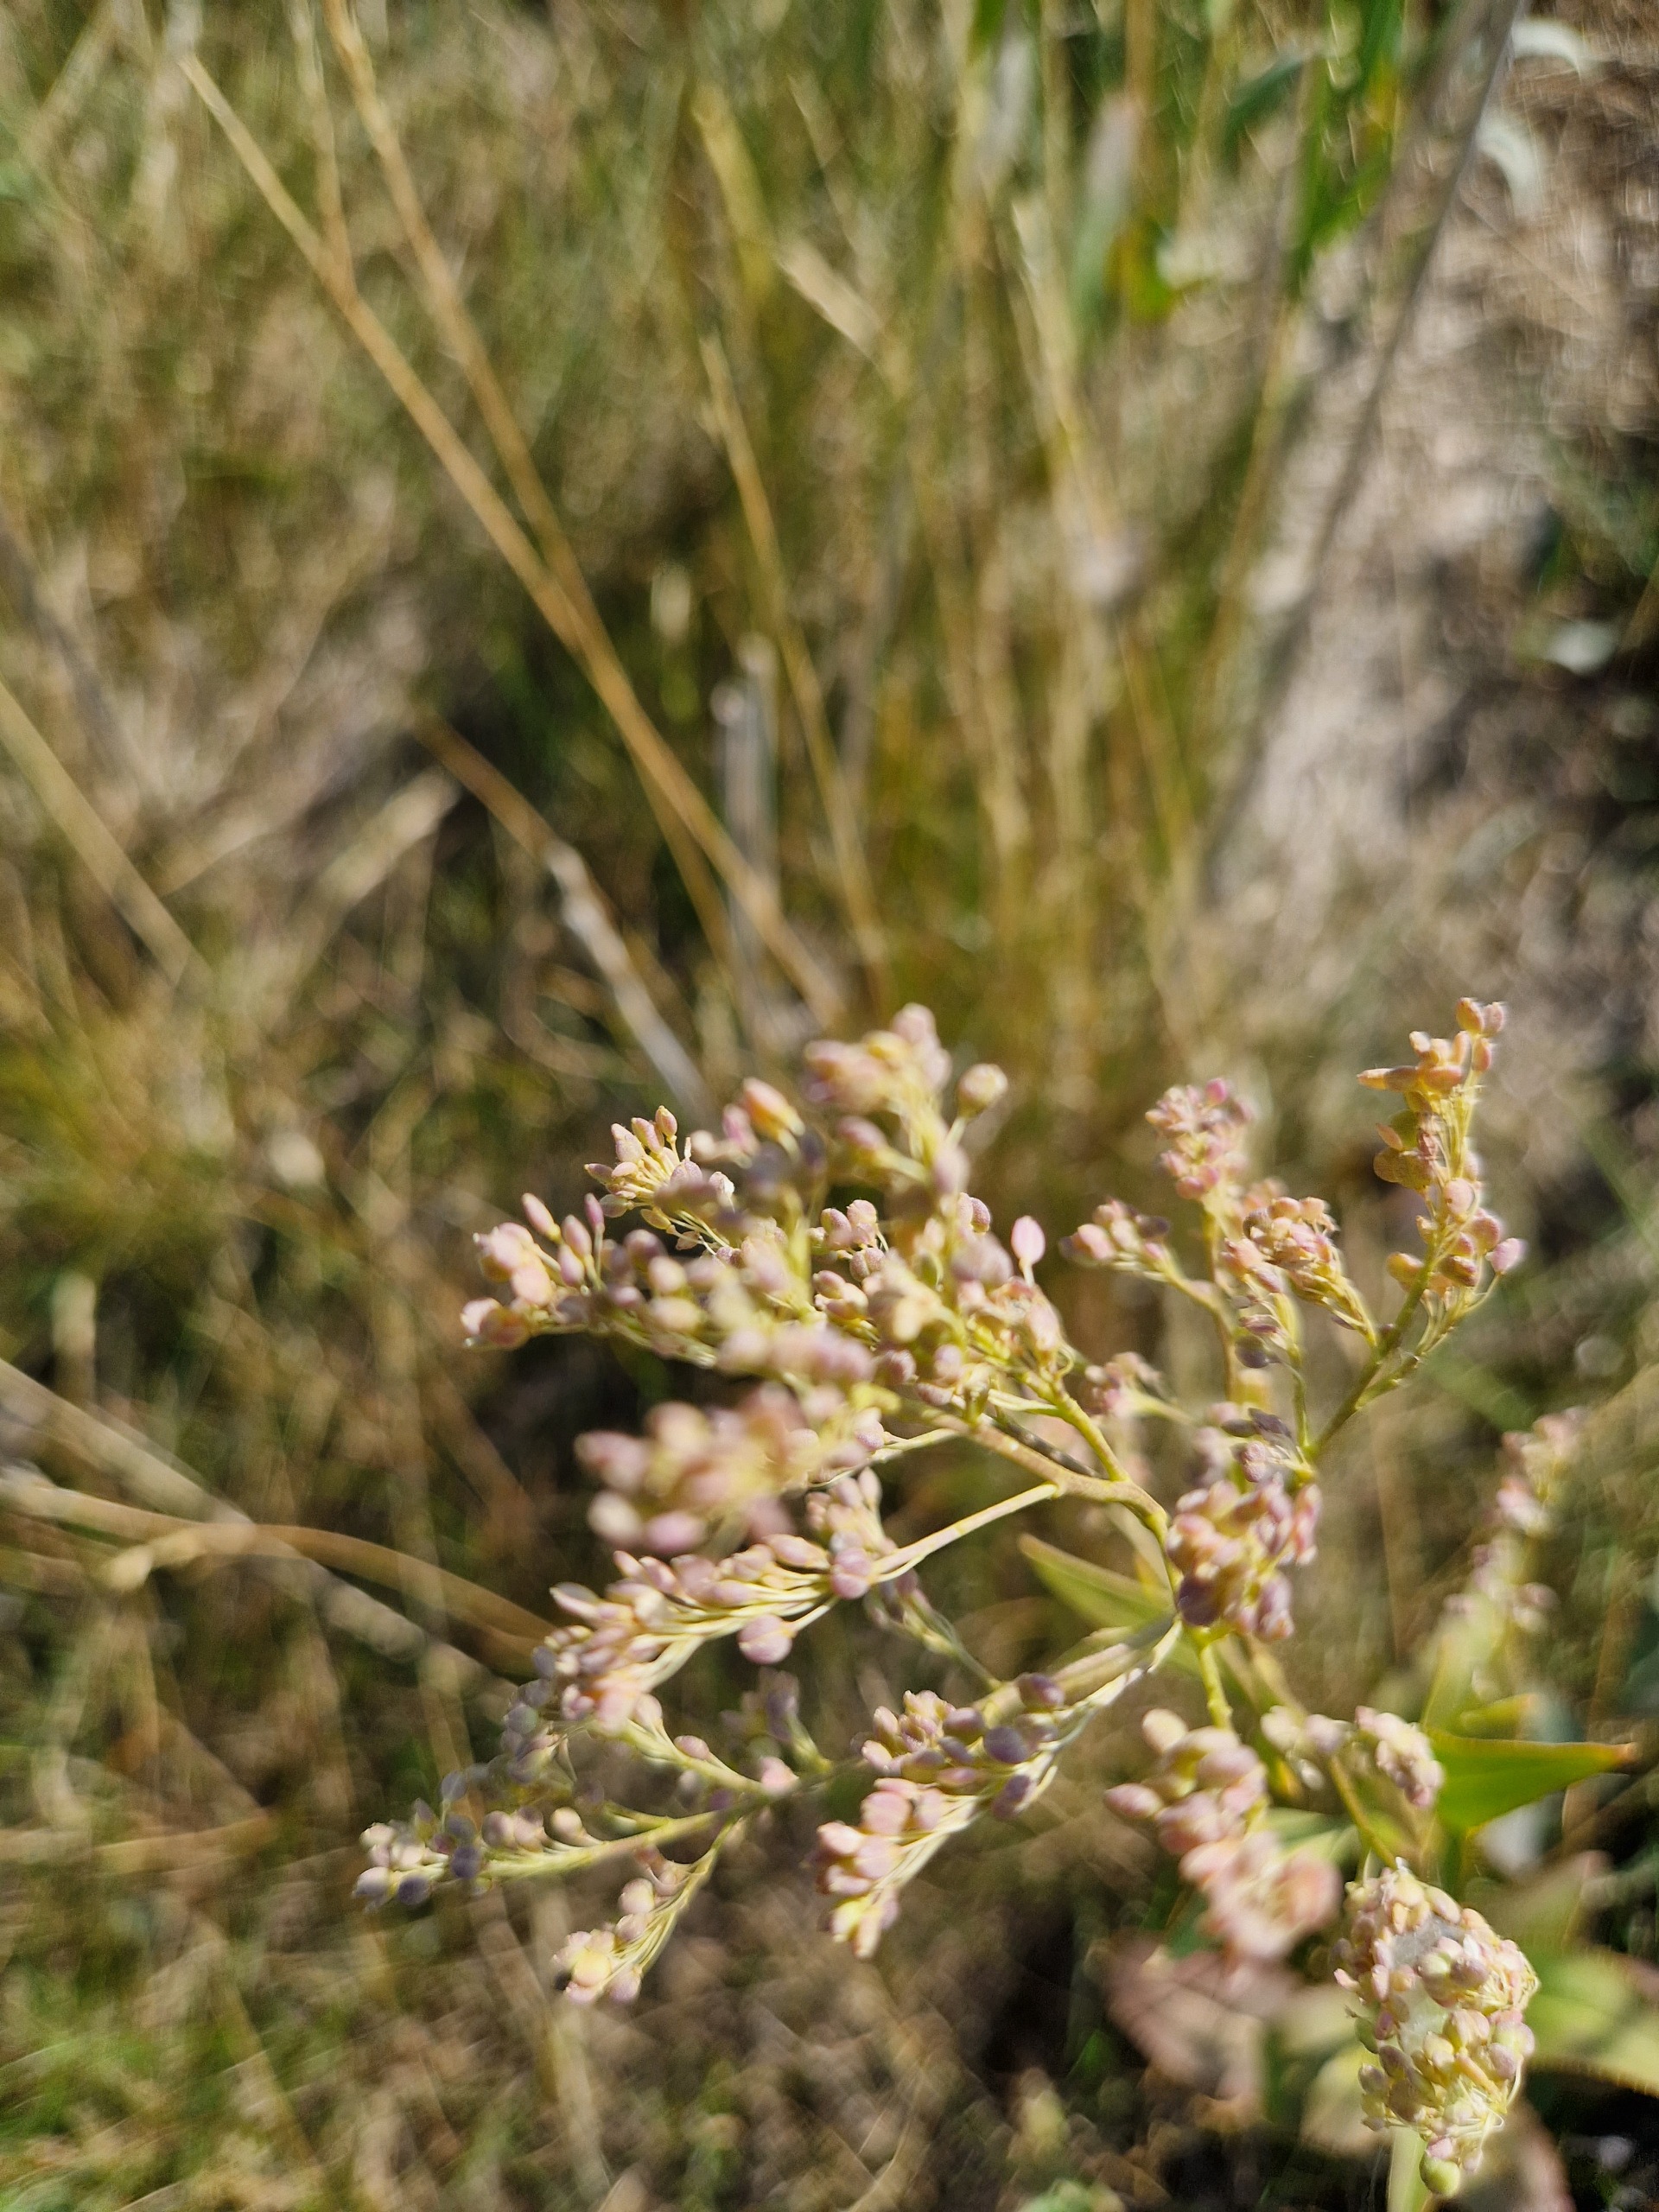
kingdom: Plantae
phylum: Tracheophyta
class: Magnoliopsida
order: Brassicales
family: Brassicaceae
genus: Lepidium
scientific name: Lepidium latifolium
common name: Strand-karse
